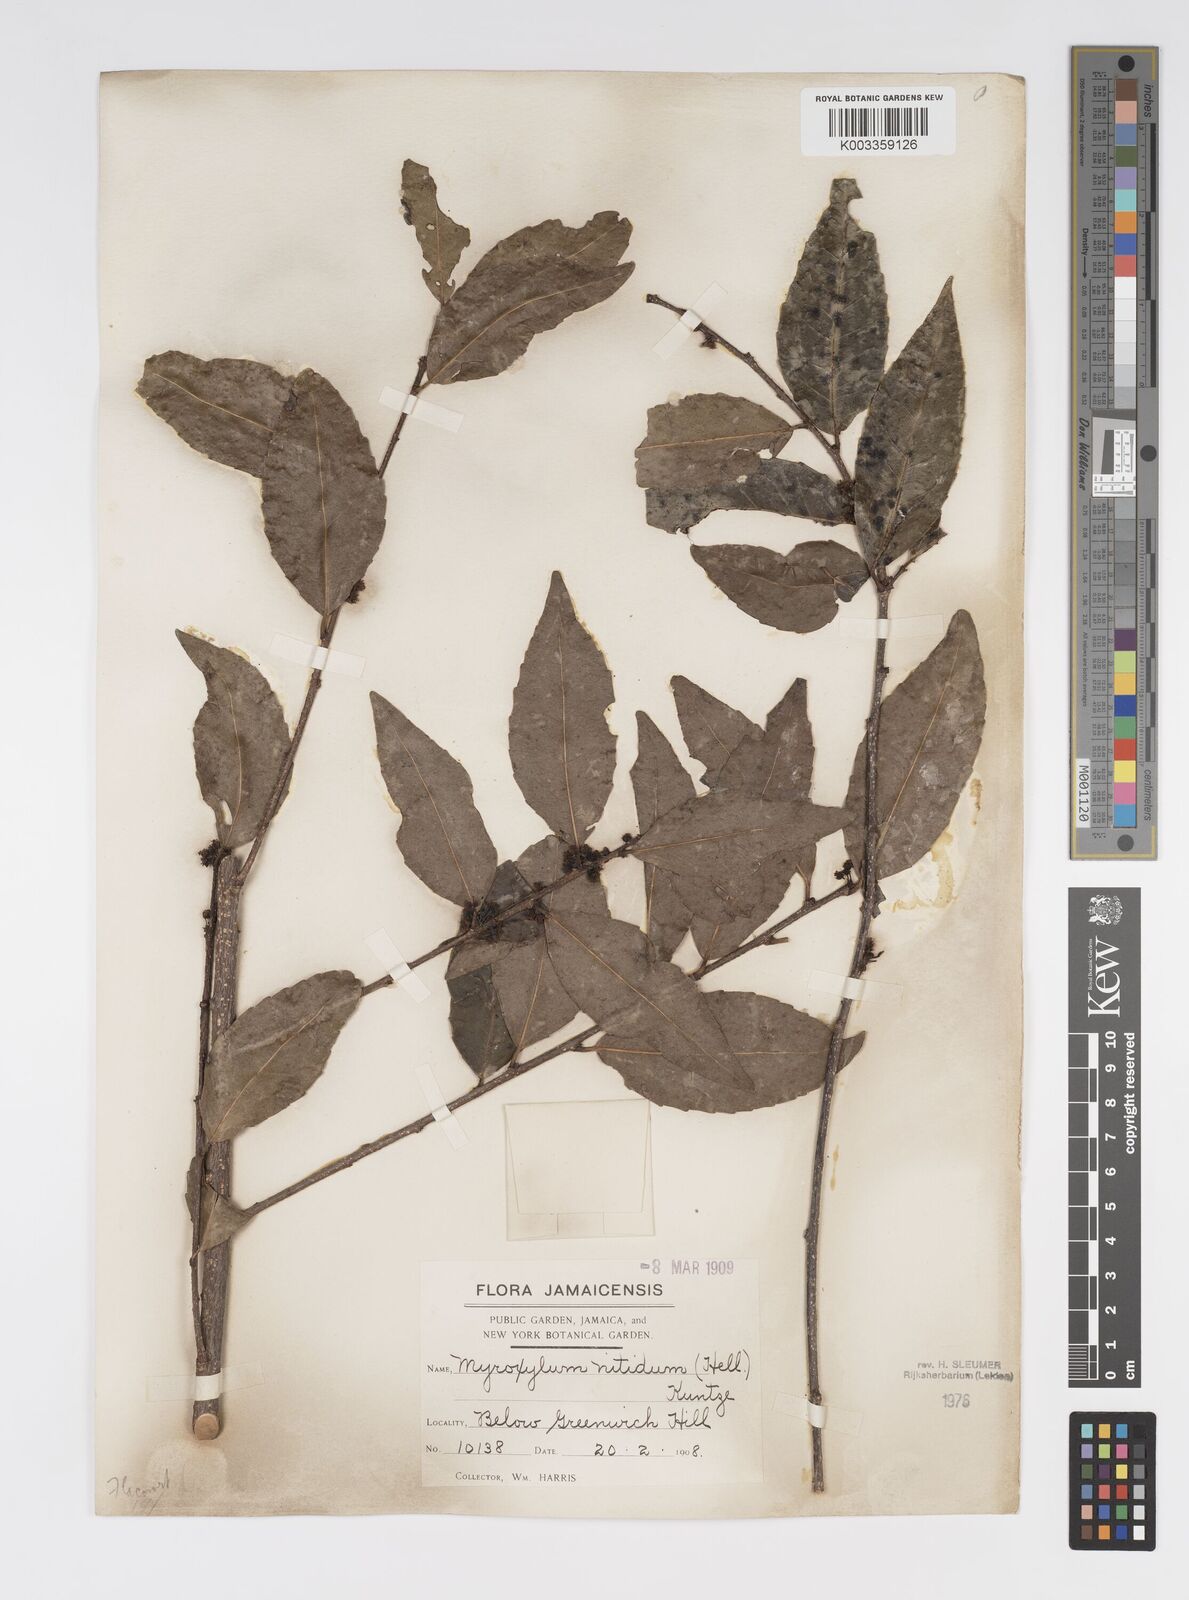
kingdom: Plantae
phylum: Tracheophyta
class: Magnoliopsida
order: Malpighiales
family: Salicaceae
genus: Xylosma
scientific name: Xylosma nitida
